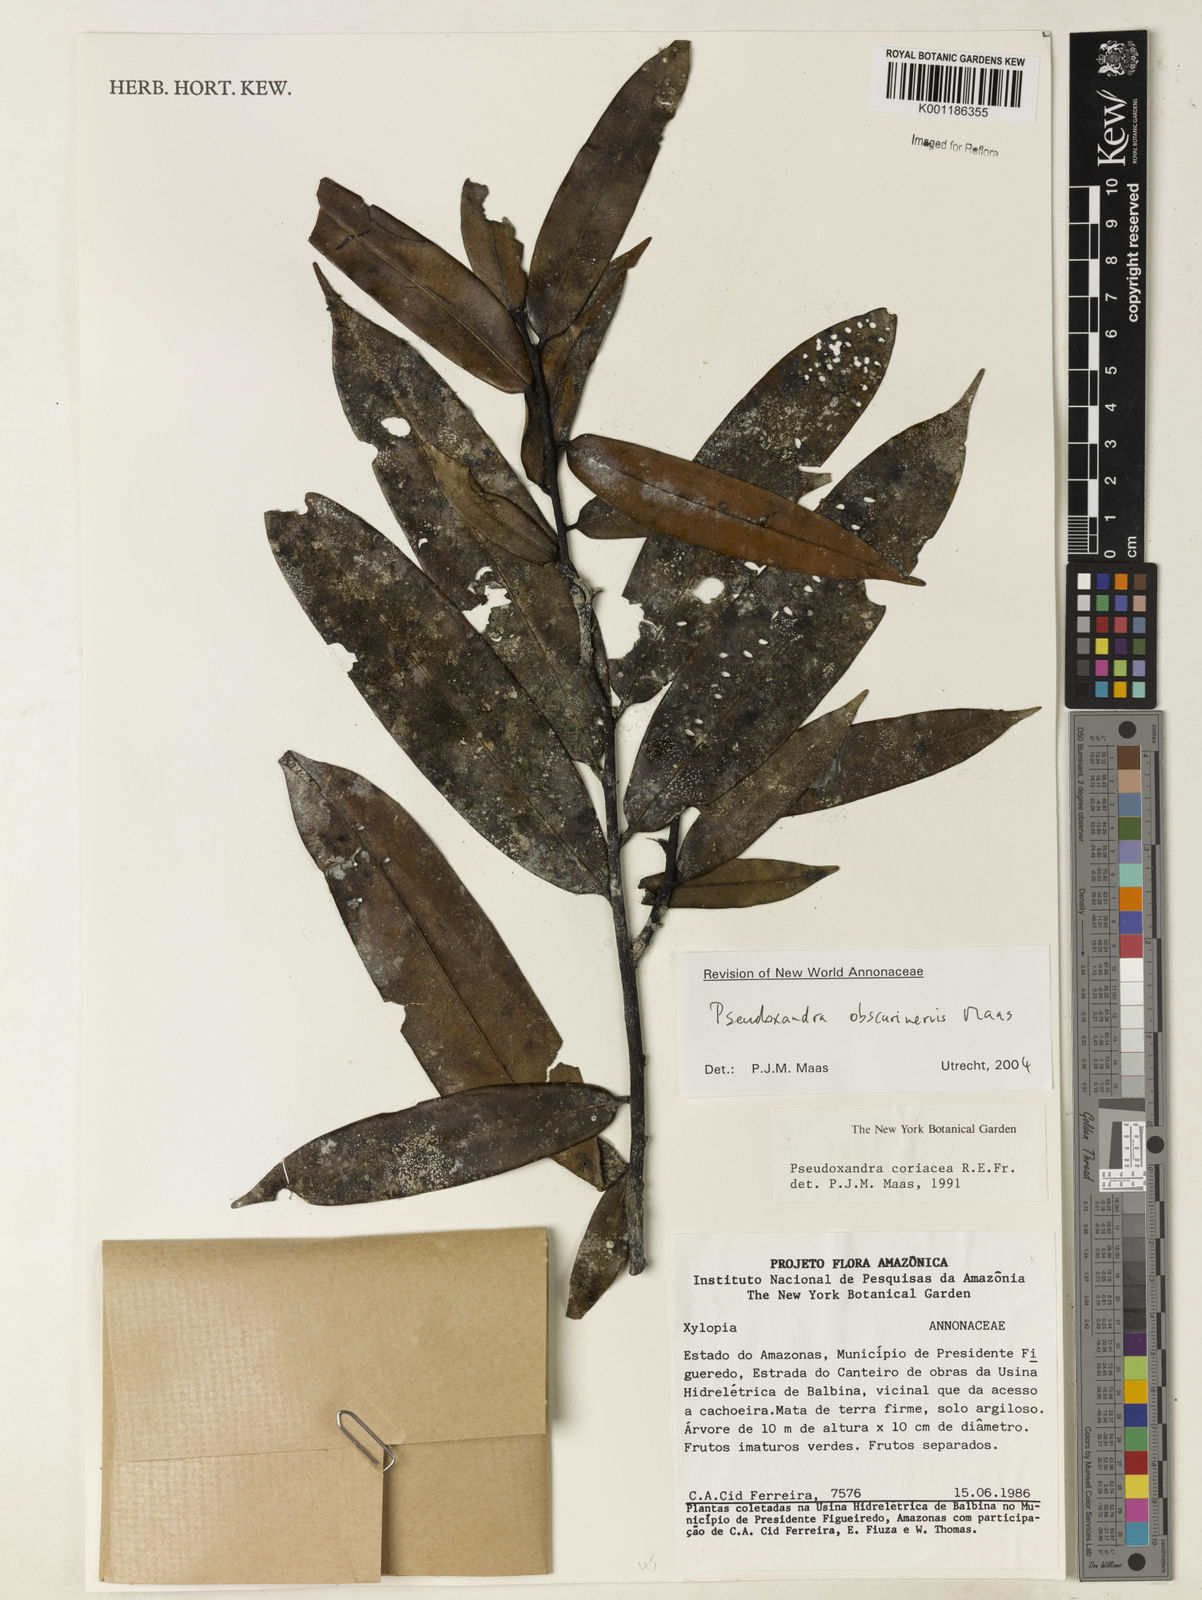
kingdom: Plantae
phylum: Tracheophyta
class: Magnoliopsida
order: Magnoliales
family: Annonaceae
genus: Pseudoxandra
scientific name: Pseudoxandra obscurinervis
